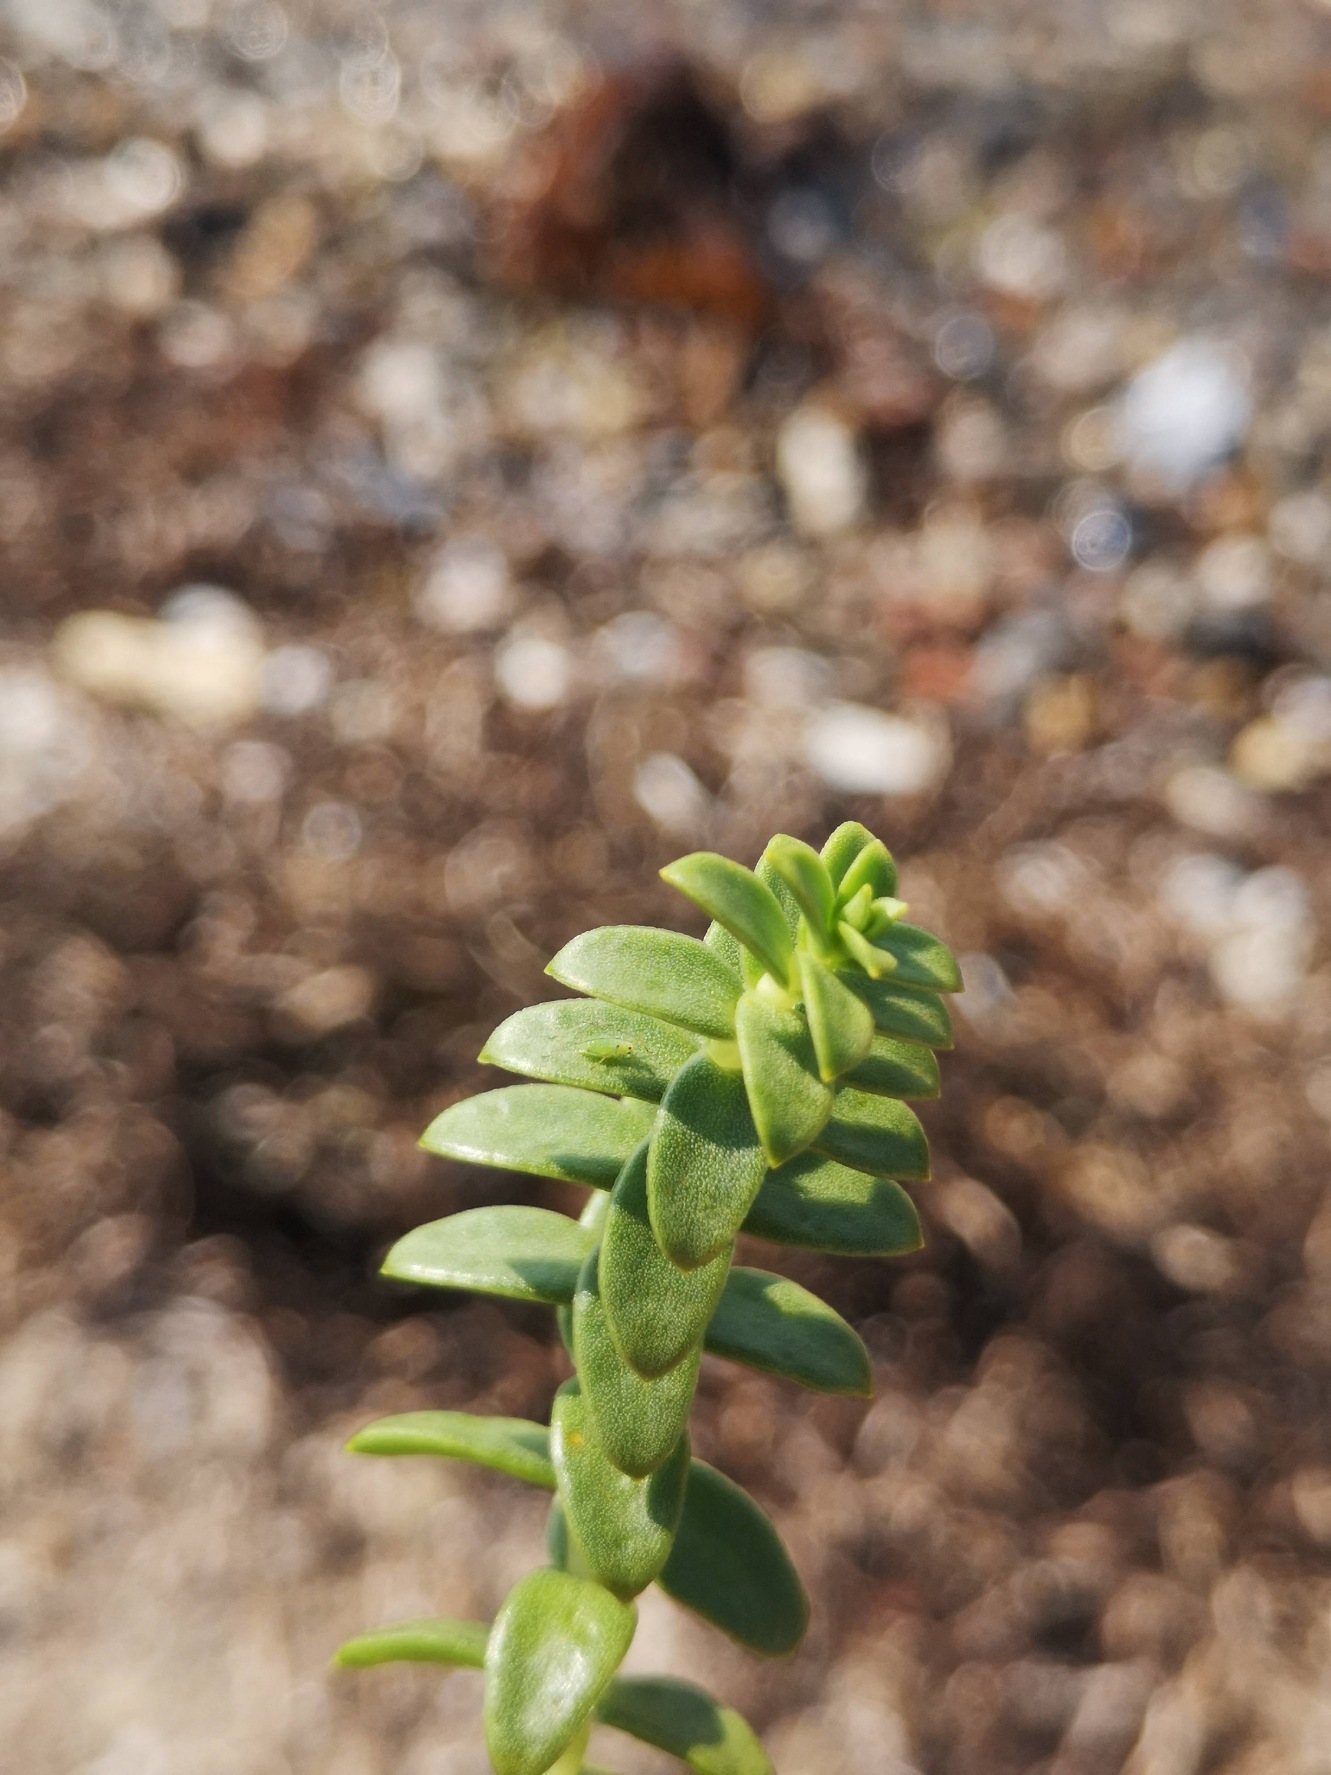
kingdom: Plantae
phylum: Tracheophyta
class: Magnoliopsida
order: Caryophyllales
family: Caryophyllaceae
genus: Honckenya
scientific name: Honckenya peploides
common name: Strandarve
